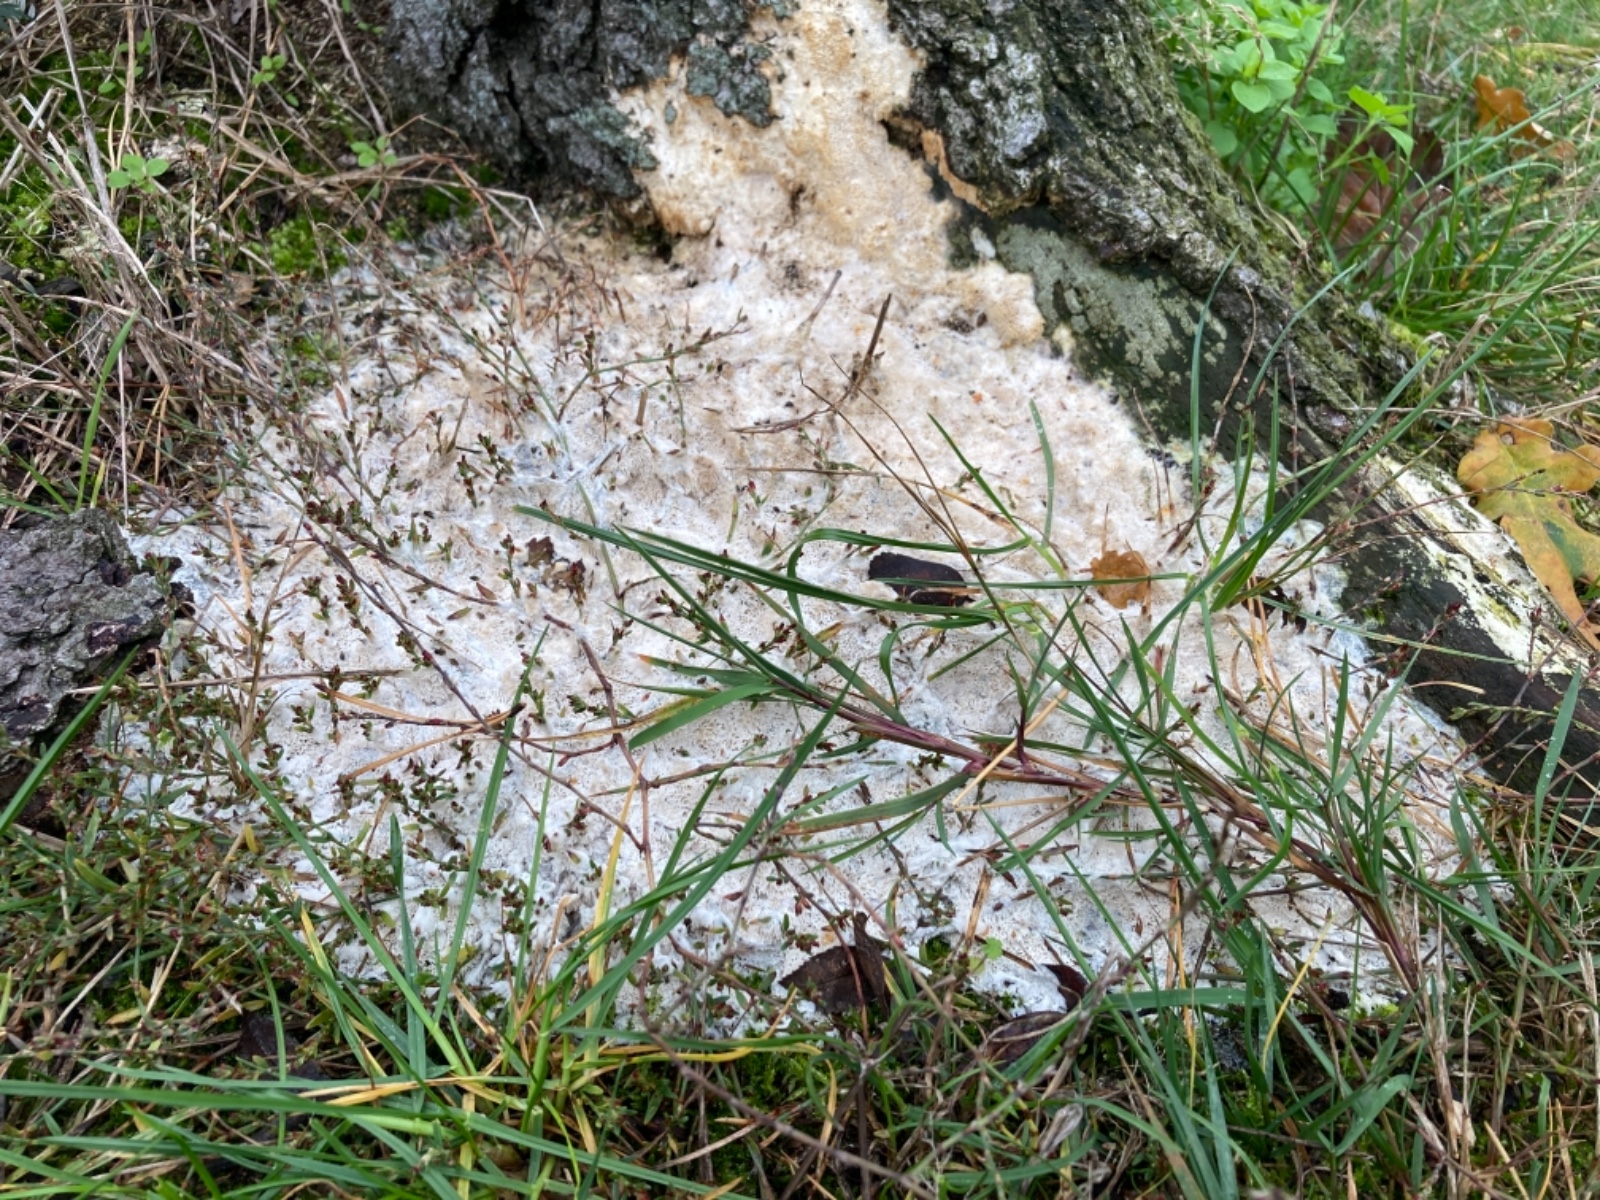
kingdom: Fungi
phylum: Basidiomycota
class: Agaricomycetes
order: Polyporales
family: Irpicaceae
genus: Emmia
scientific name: Emmia
